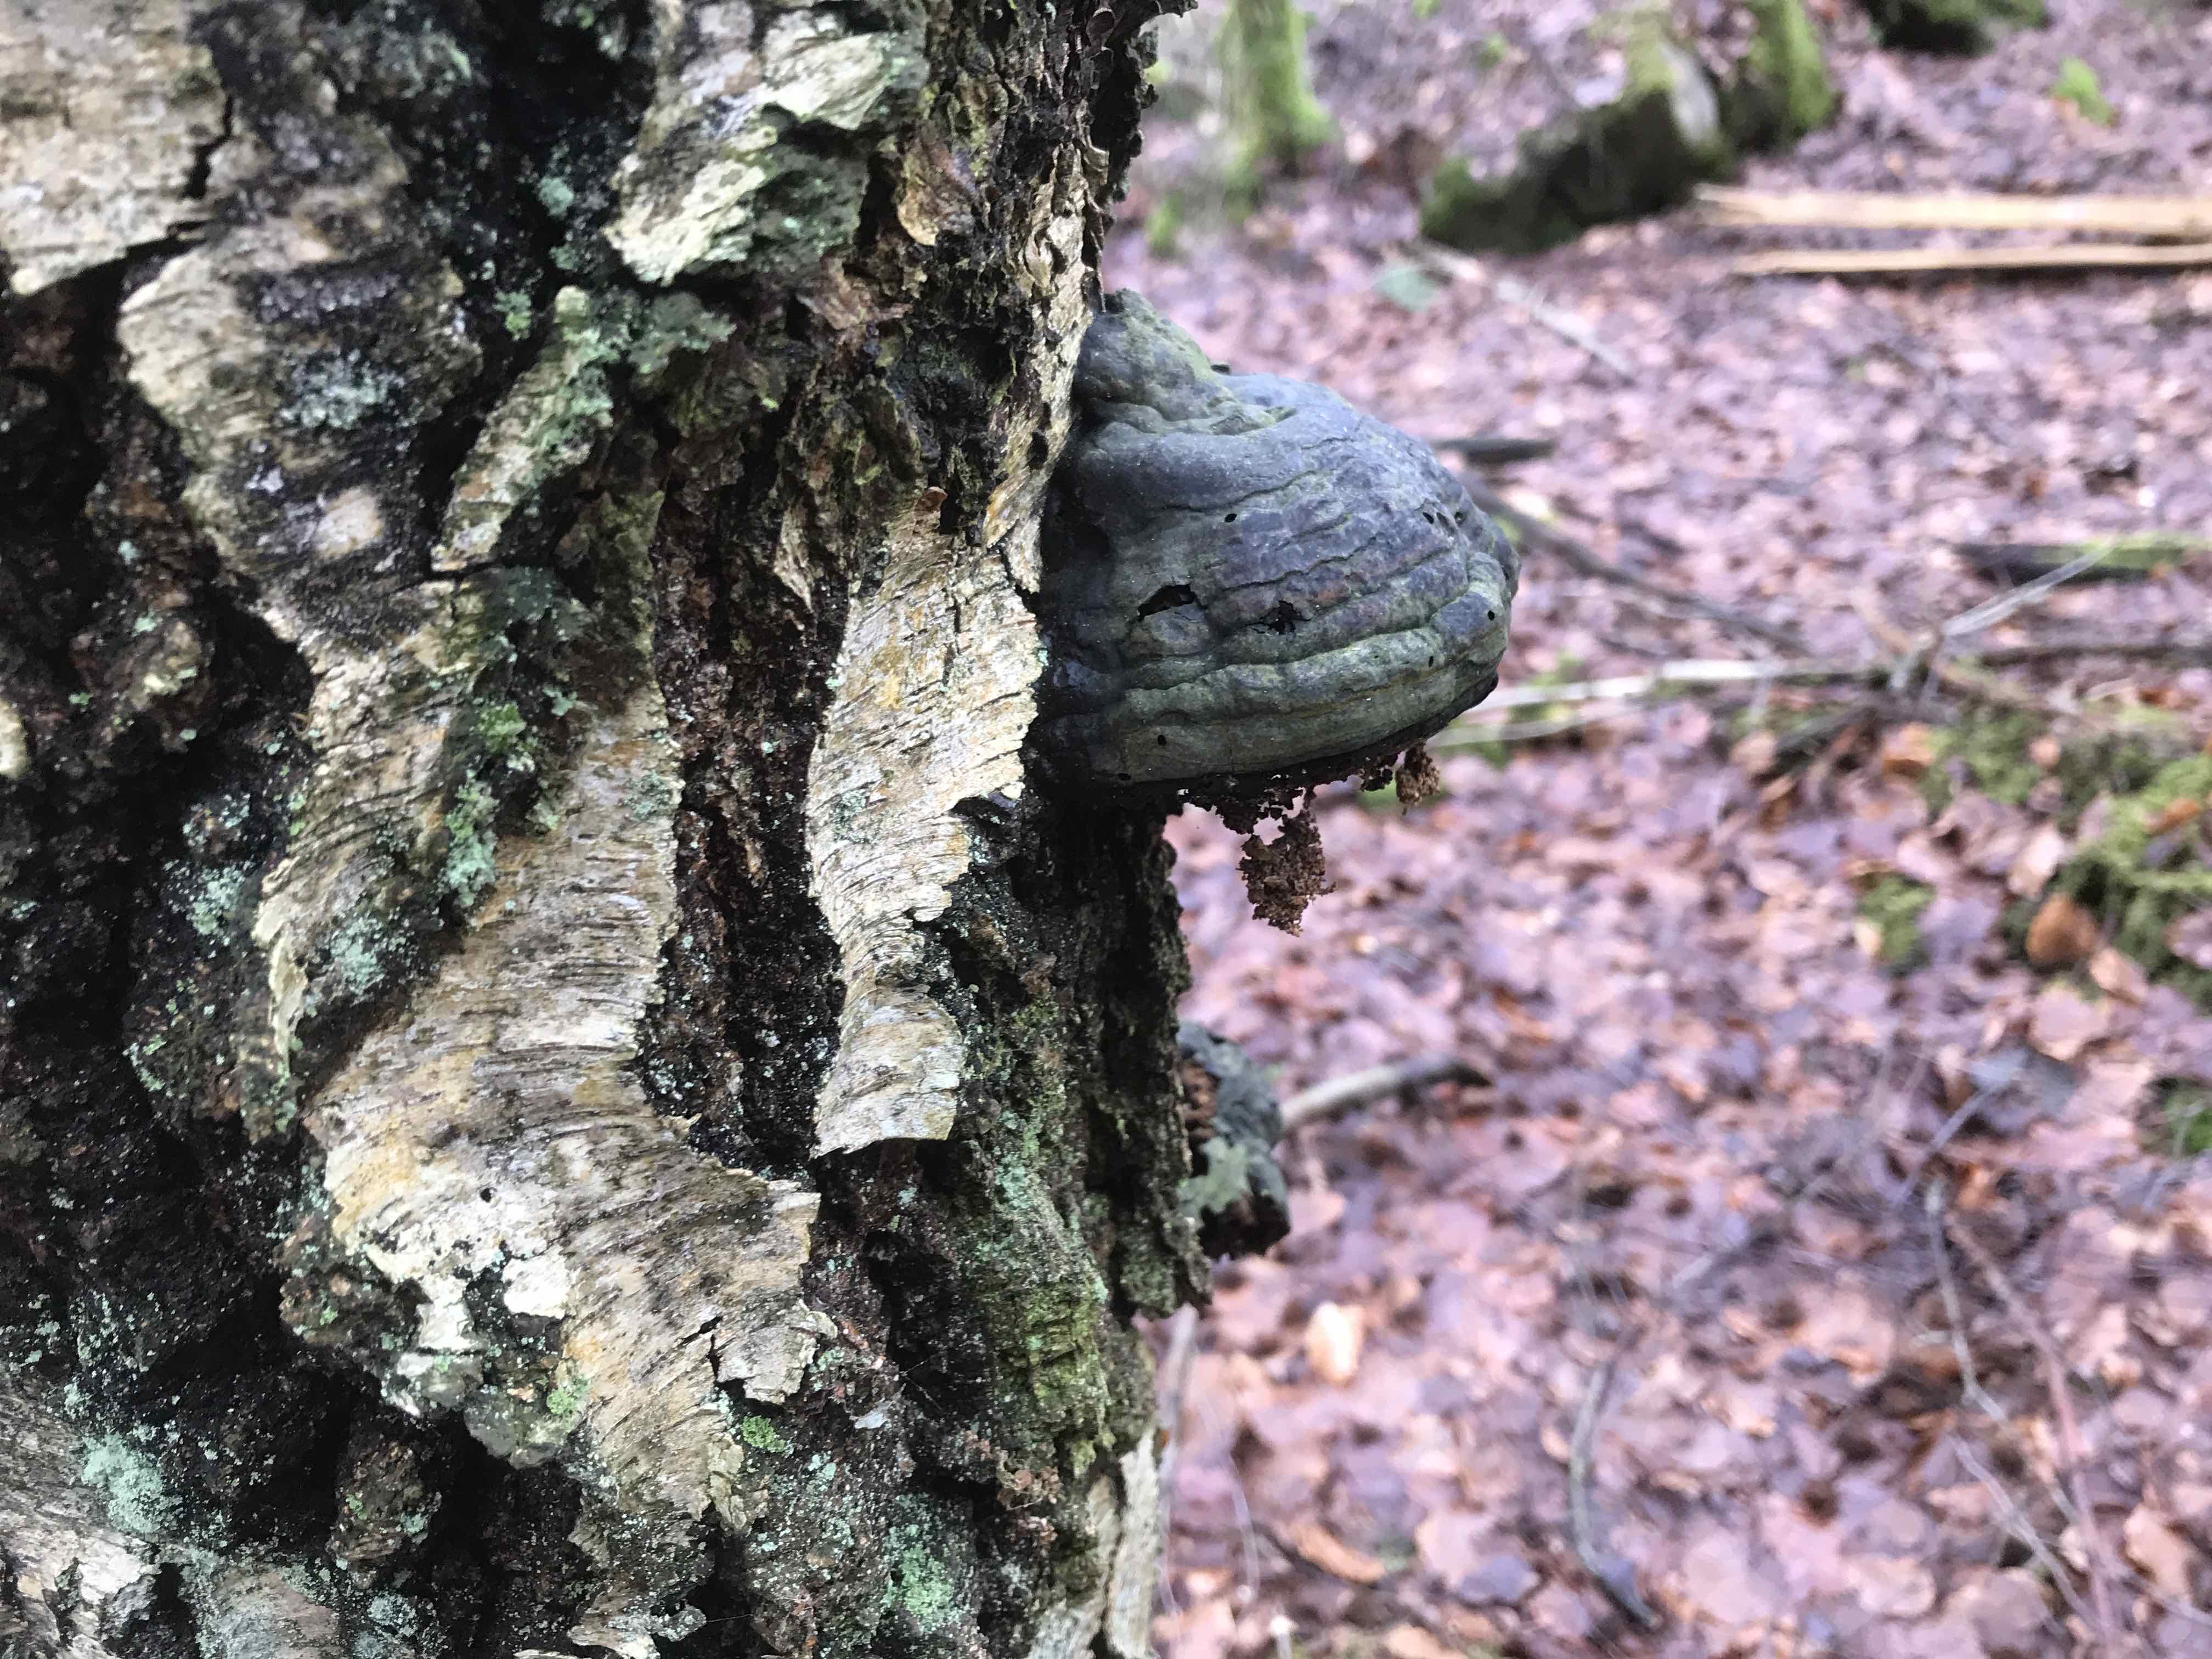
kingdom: Fungi
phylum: Basidiomycota
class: Agaricomycetes
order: Polyporales
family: Polyporaceae
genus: Fomes
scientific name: Fomes fomentarius
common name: tøndersvamp
